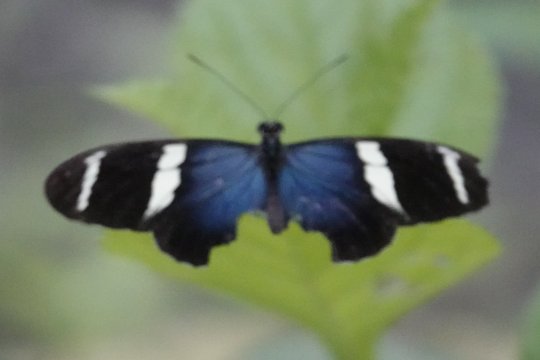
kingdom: Animalia
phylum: Arthropoda
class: Insecta
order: Lepidoptera
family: Nymphalidae
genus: Heliconius
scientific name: Heliconius sara
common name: Sara Longwing
